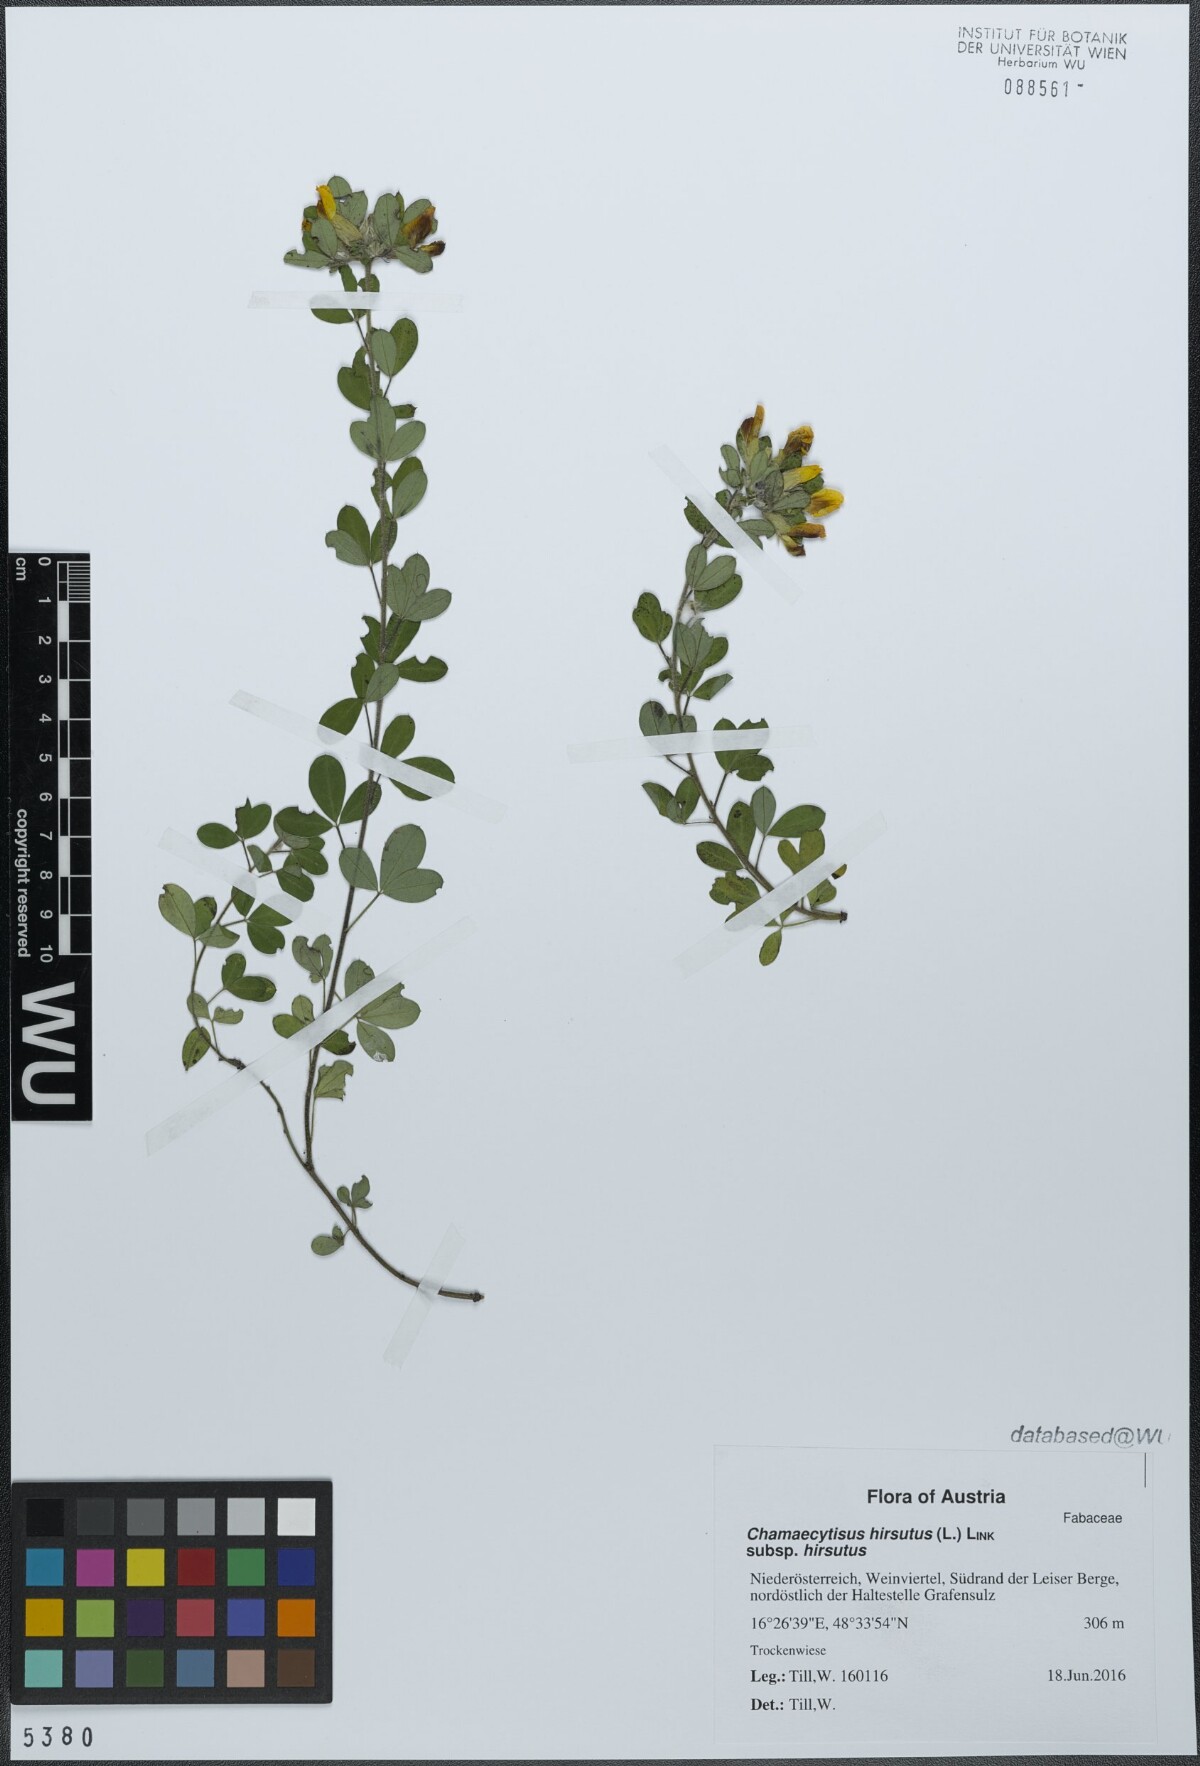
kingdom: Plantae
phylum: Tracheophyta
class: Magnoliopsida
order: Fabales
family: Fabaceae
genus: Chamaecytisus
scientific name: Chamaecytisus hirsutus
